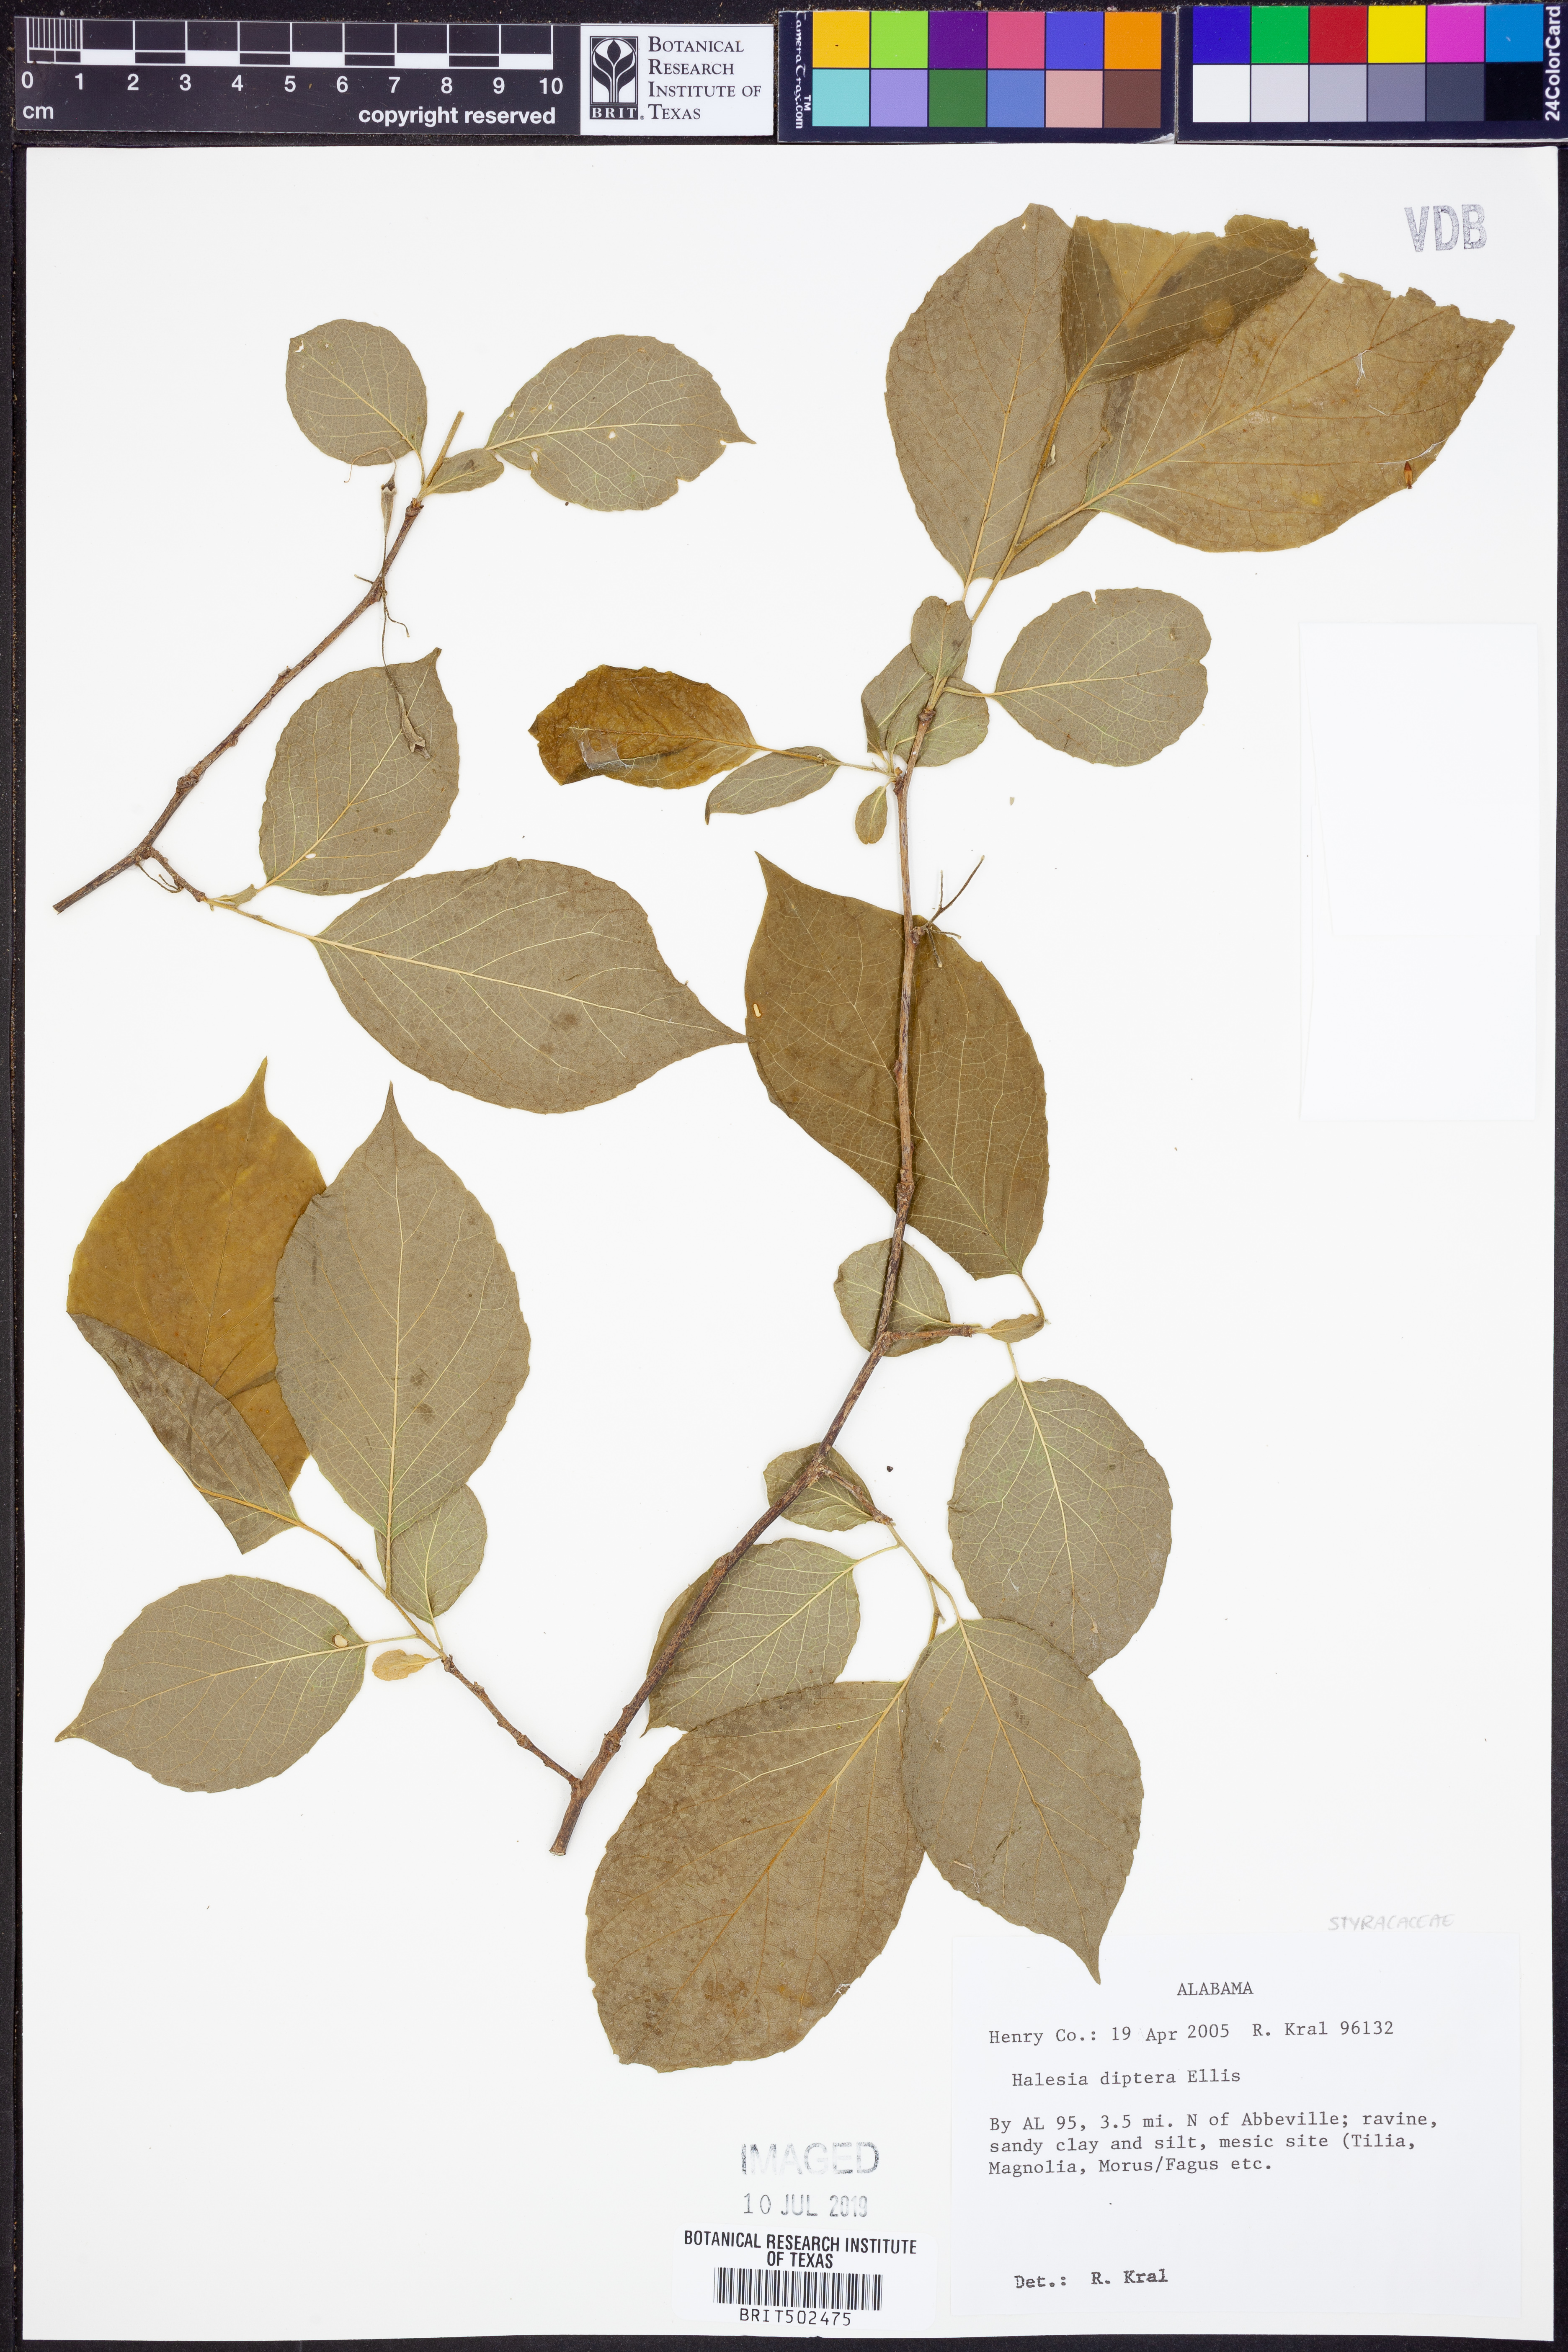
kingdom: Plantae
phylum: Tracheophyta
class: Magnoliopsida
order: Ericales
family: Styracaceae
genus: Halesia
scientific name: Halesia diptera
